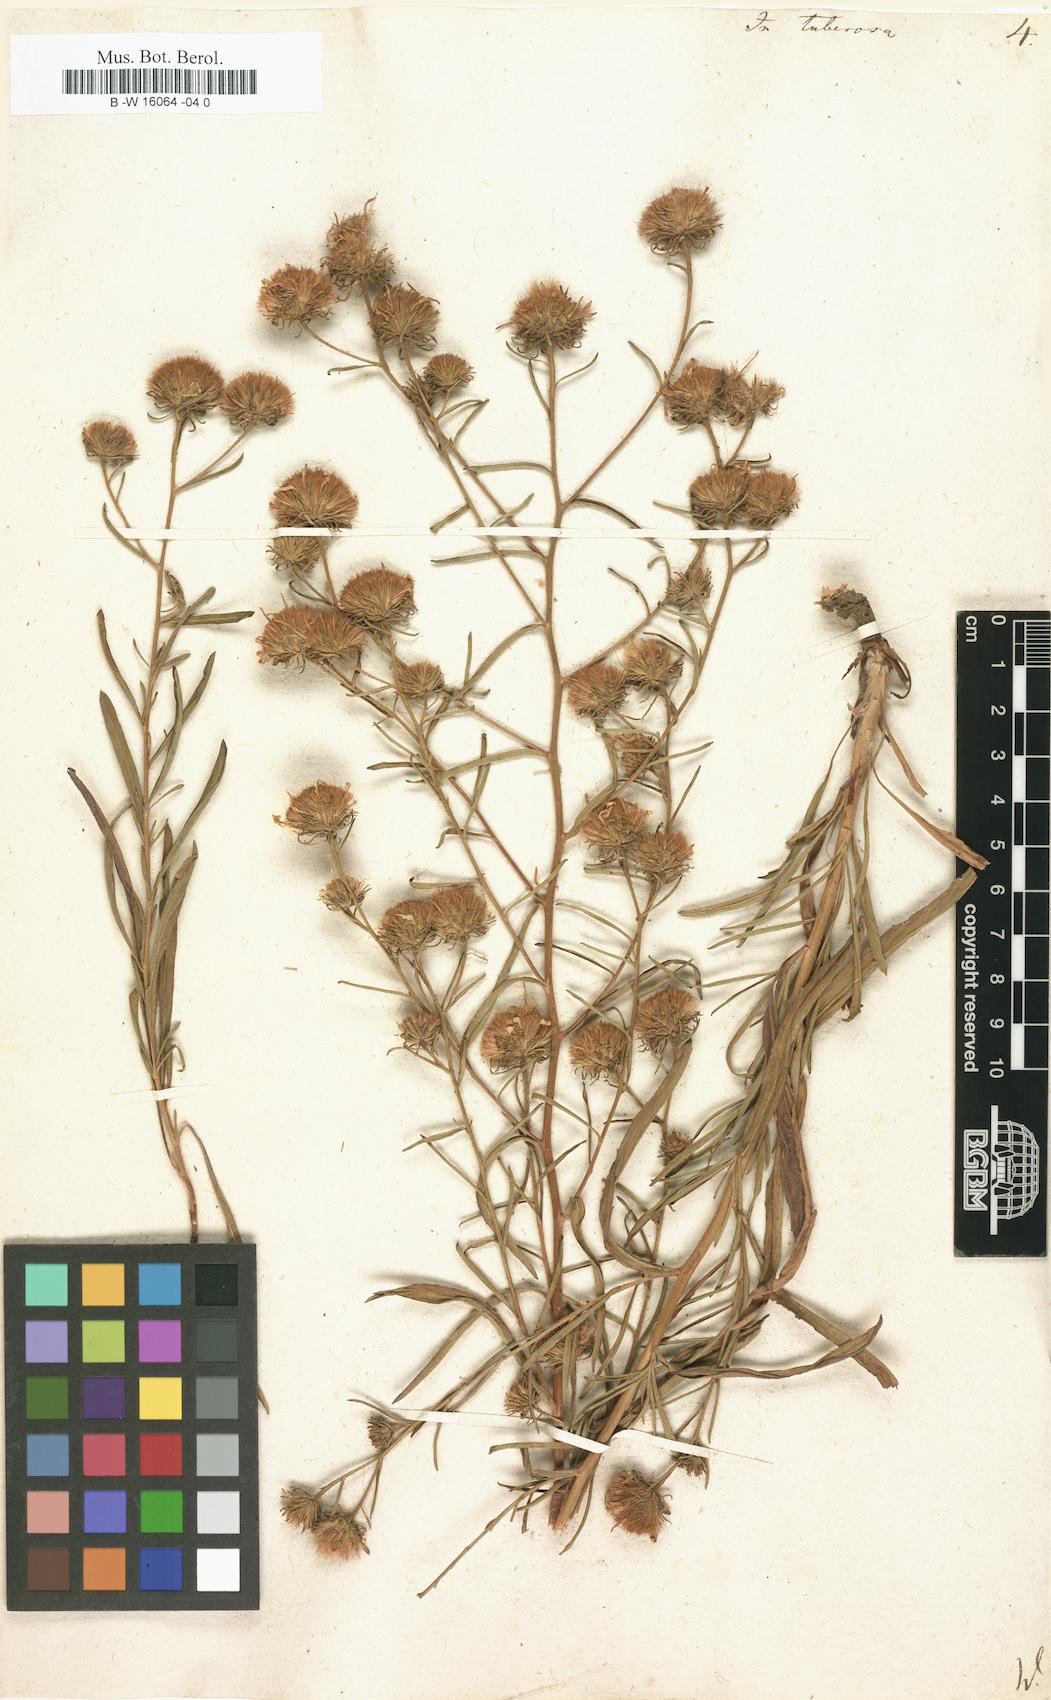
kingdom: Plantae
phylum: Tracheophyta
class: Magnoliopsida
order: Asterales
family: Asteraceae
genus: Jasonia
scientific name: Jasonia tuberosa
